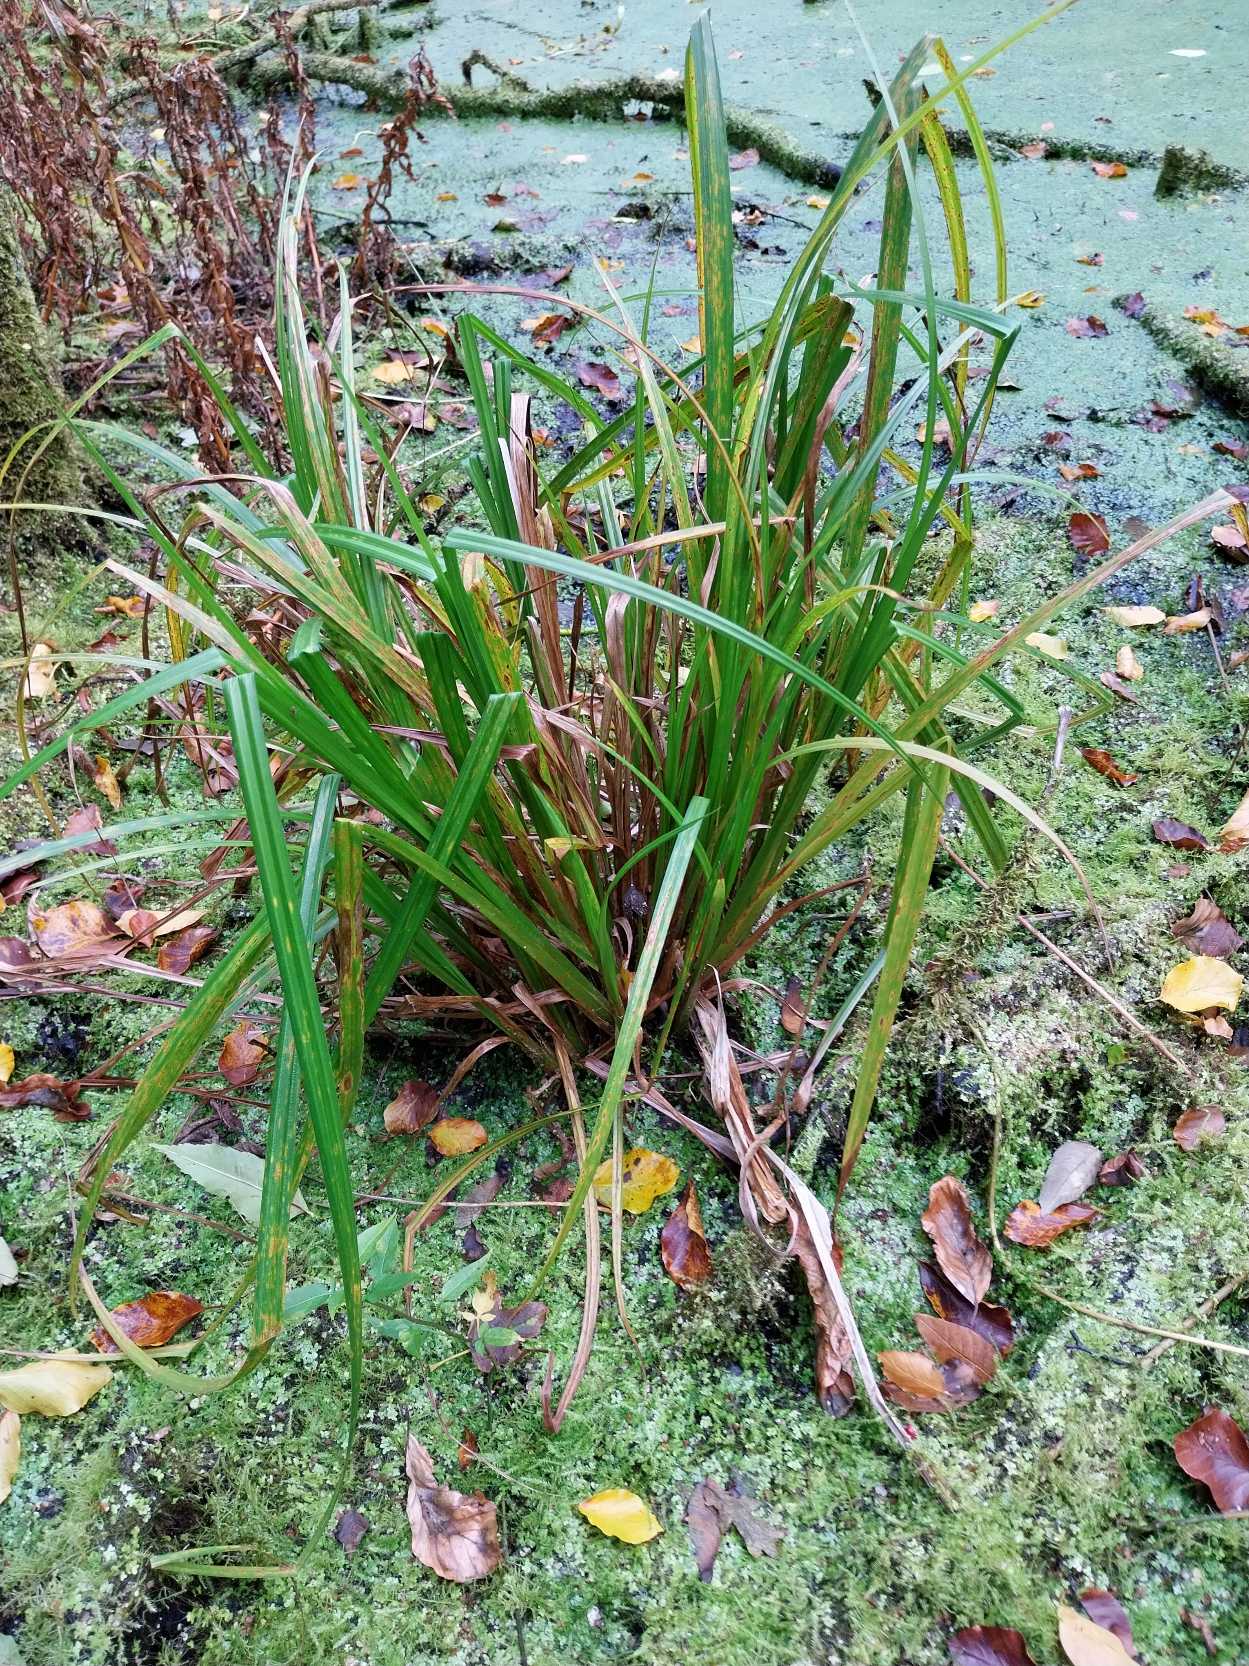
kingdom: Plantae
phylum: Tracheophyta
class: Liliopsida
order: Poales
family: Cyperaceae
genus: Carex
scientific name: Carex pseudocyperus
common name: Knippe-star
